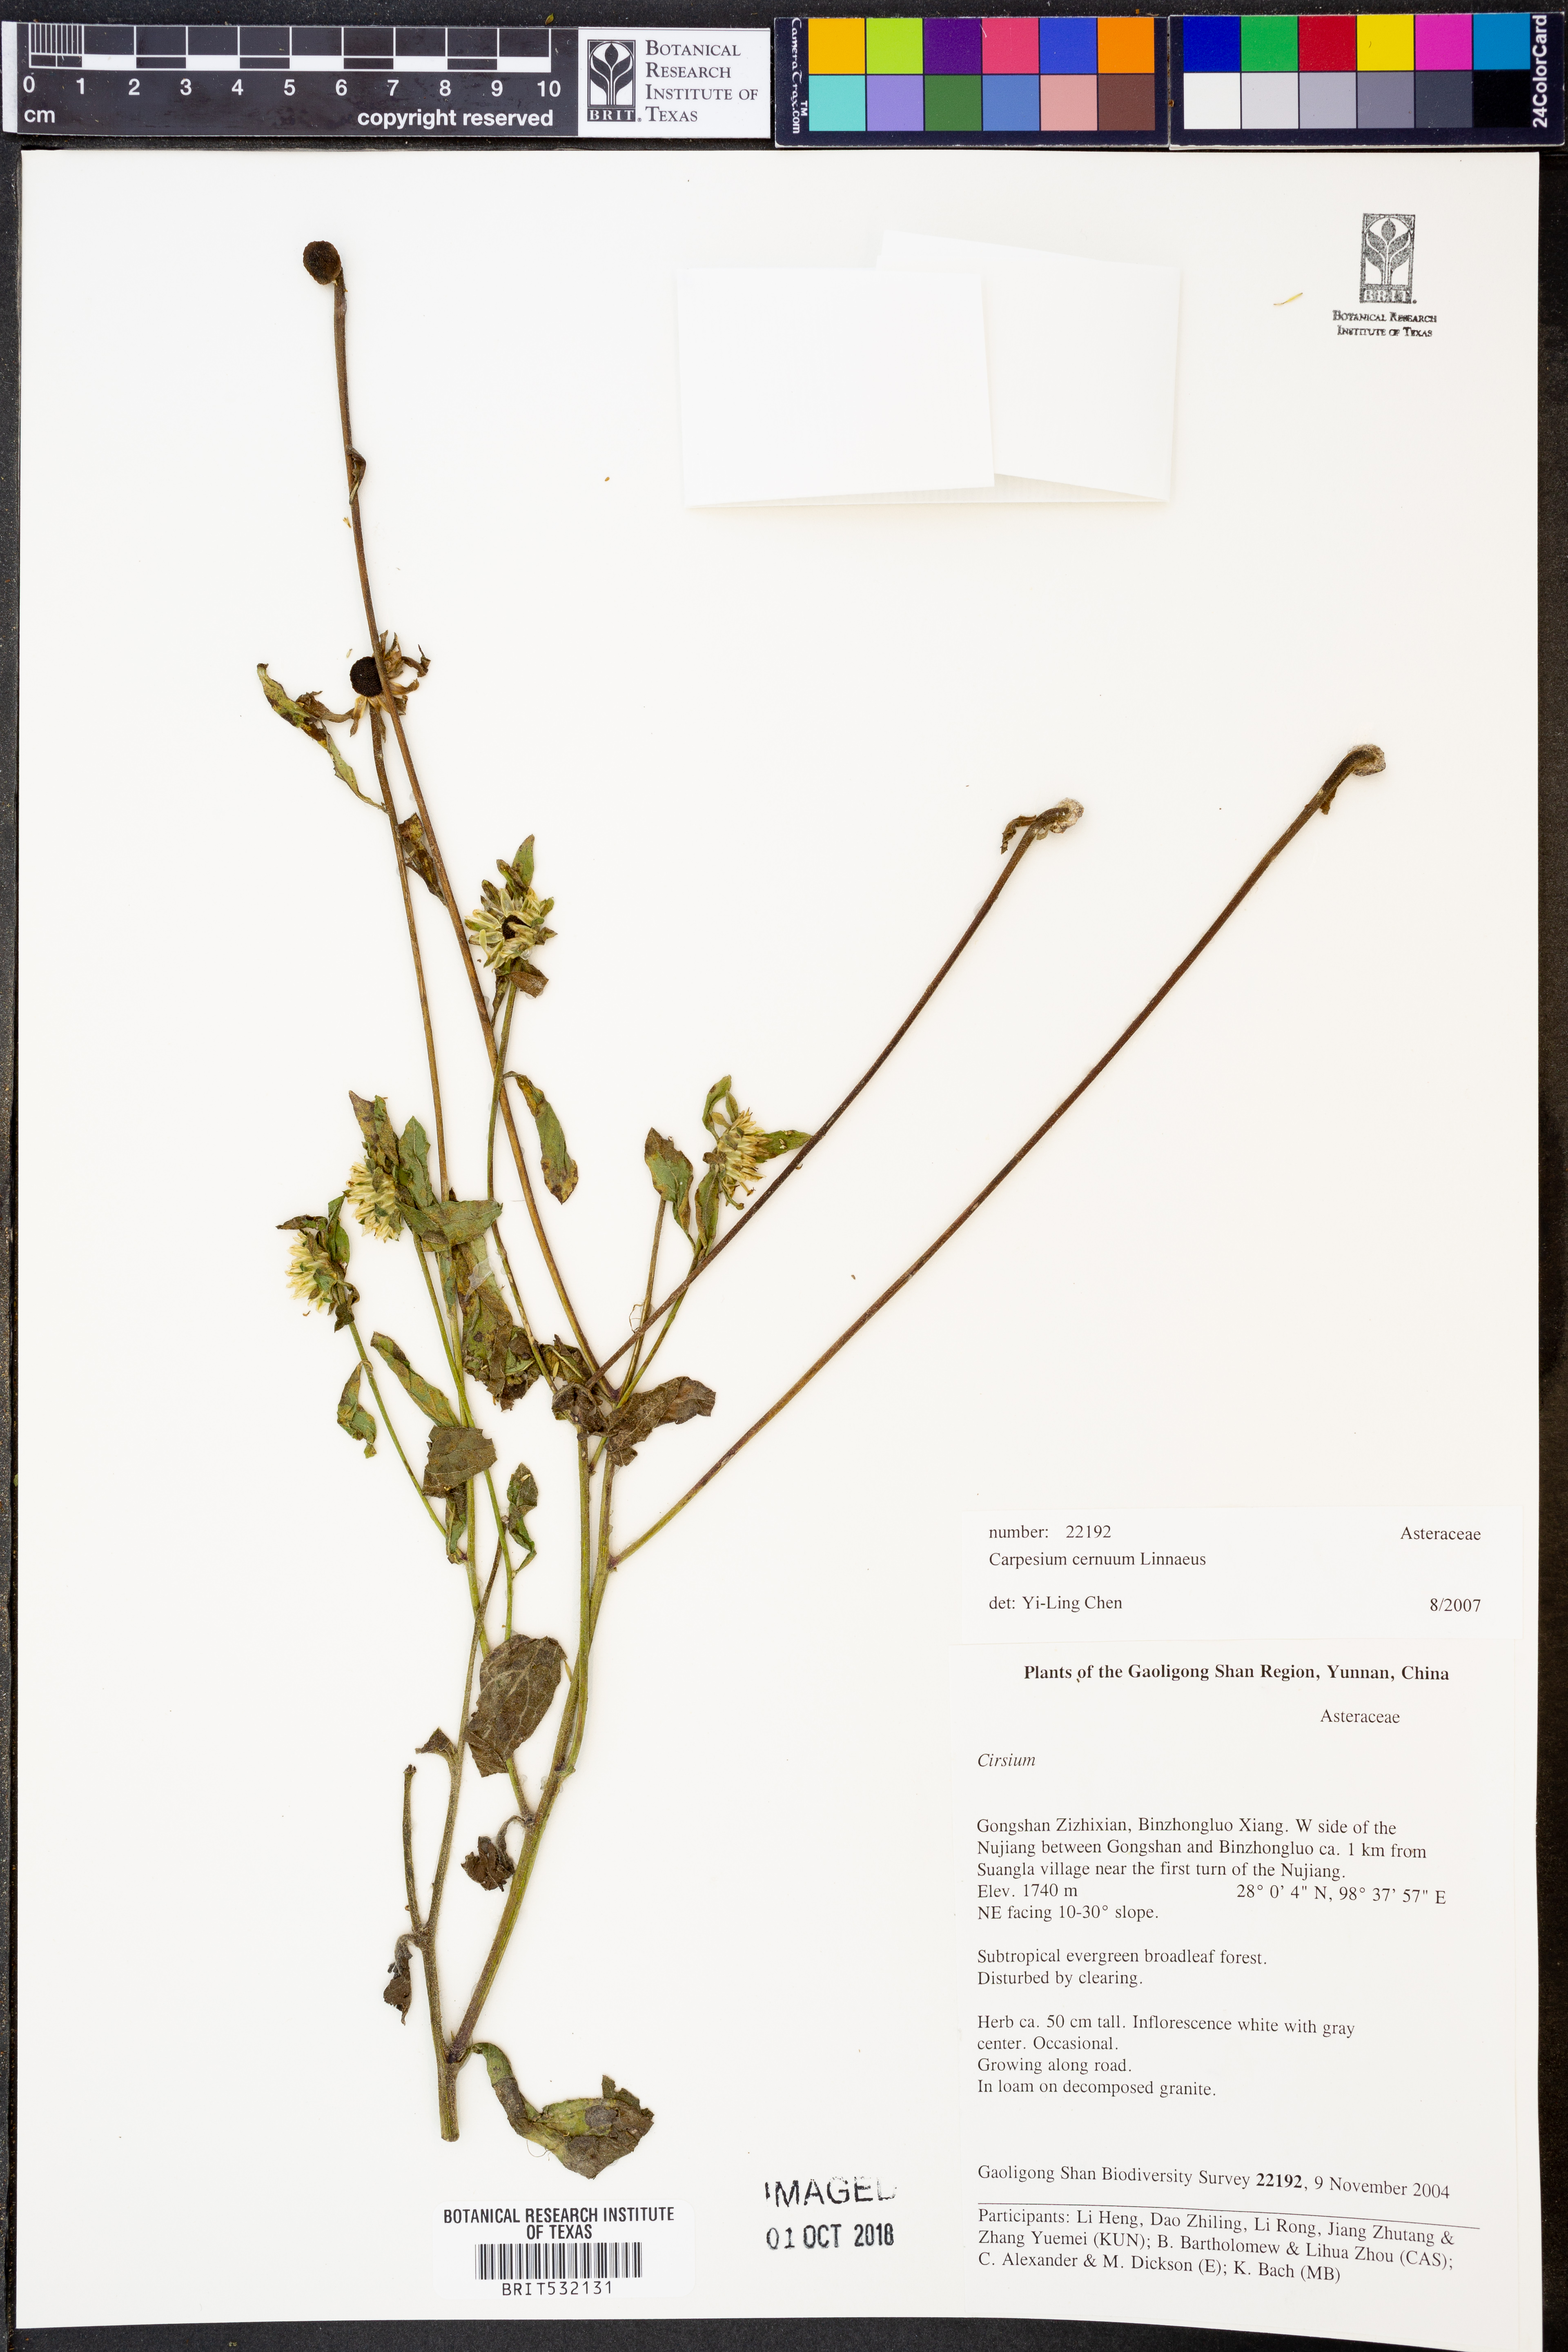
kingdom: Plantae
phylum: Tracheophyta
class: Magnoliopsida
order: Asterales
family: Asteraceae
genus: Carpesium
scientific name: Carpesium cernuum
